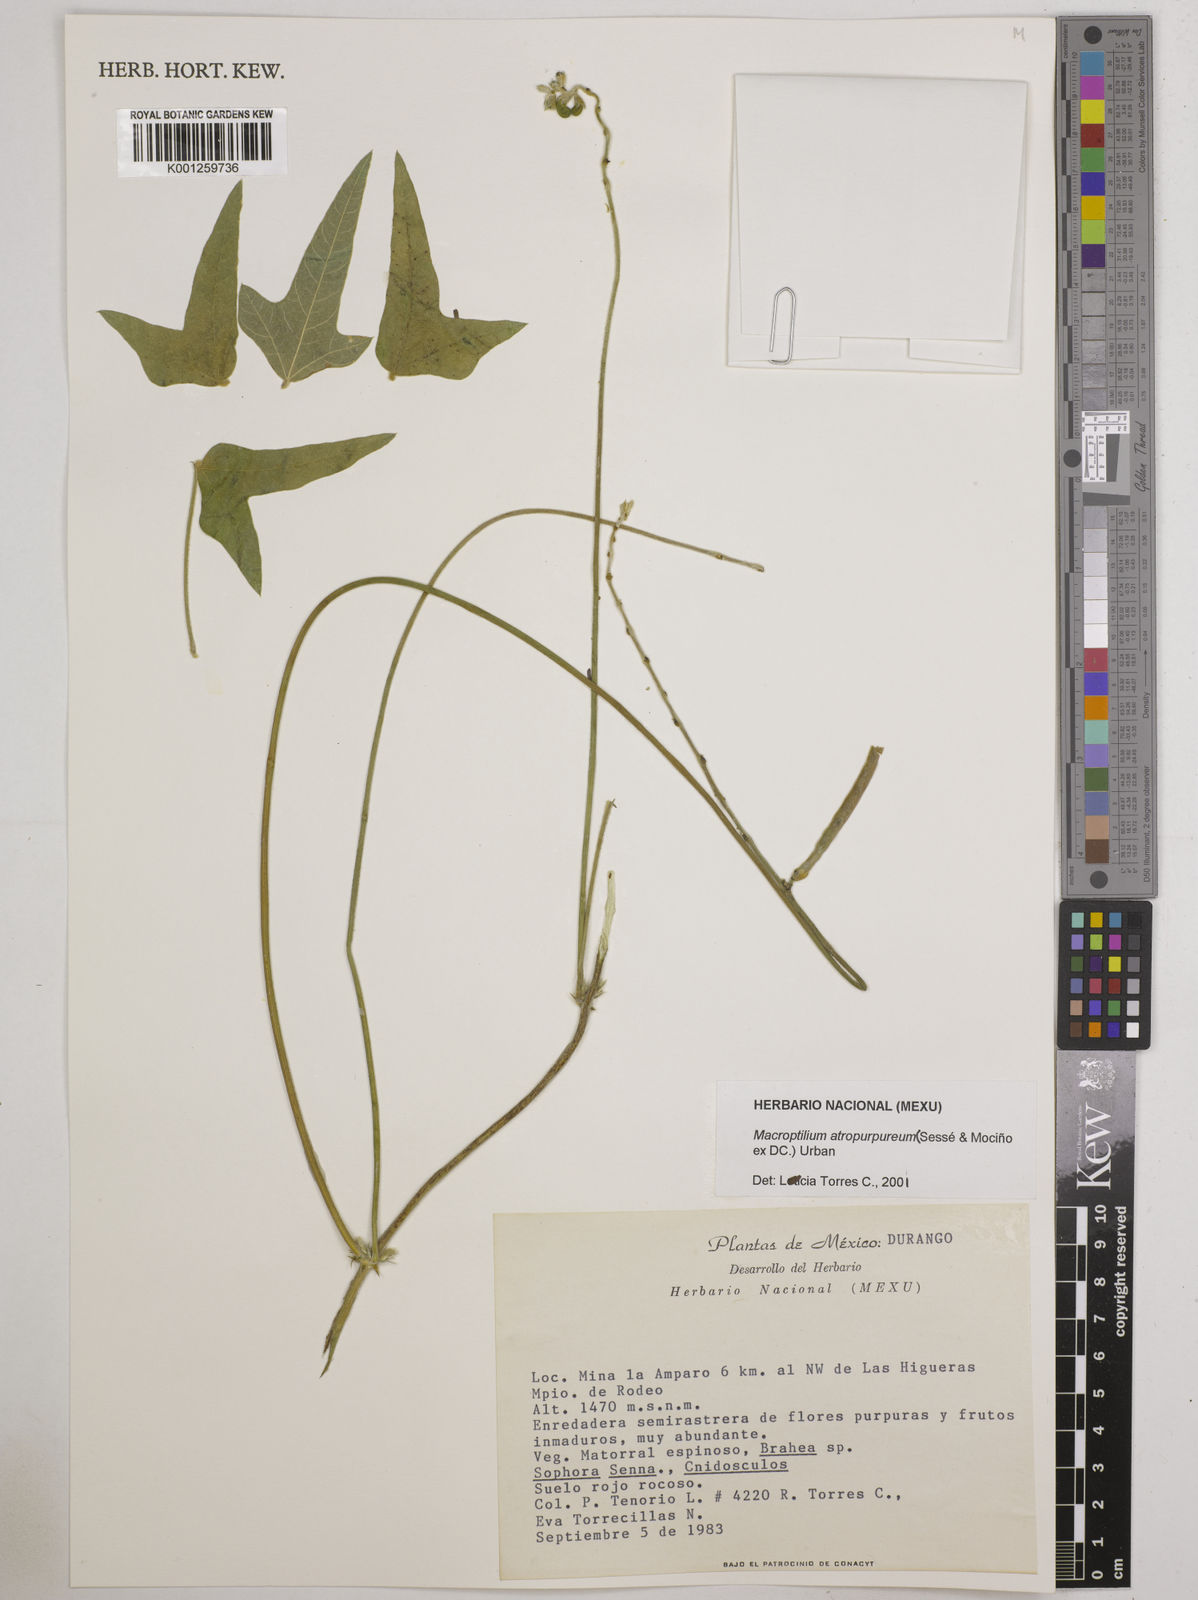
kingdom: Plantae
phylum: Tracheophyta
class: Magnoliopsida
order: Fabales
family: Fabaceae
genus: Macroptilium
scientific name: Macroptilium atropurpureum
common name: Purple bushbean
